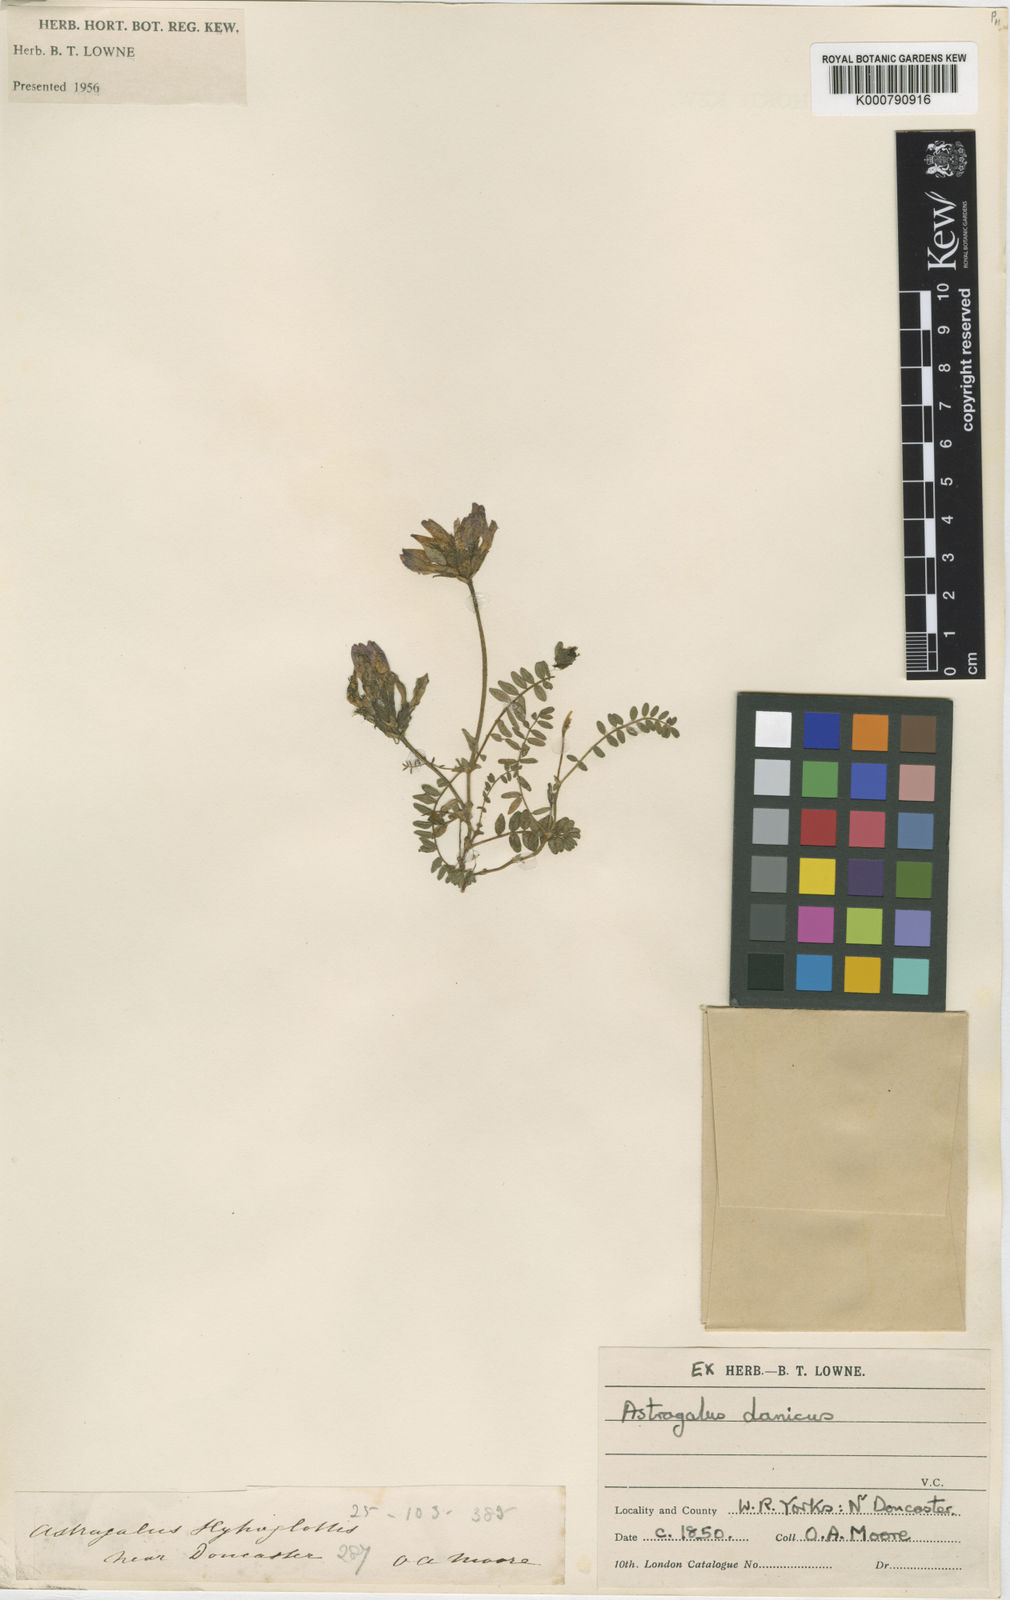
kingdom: Plantae
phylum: Tracheophyta
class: Magnoliopsida
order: Fabales
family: Fabaceae
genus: Astragalus
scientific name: Astragalus danicus
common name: Purple milk-vetch
